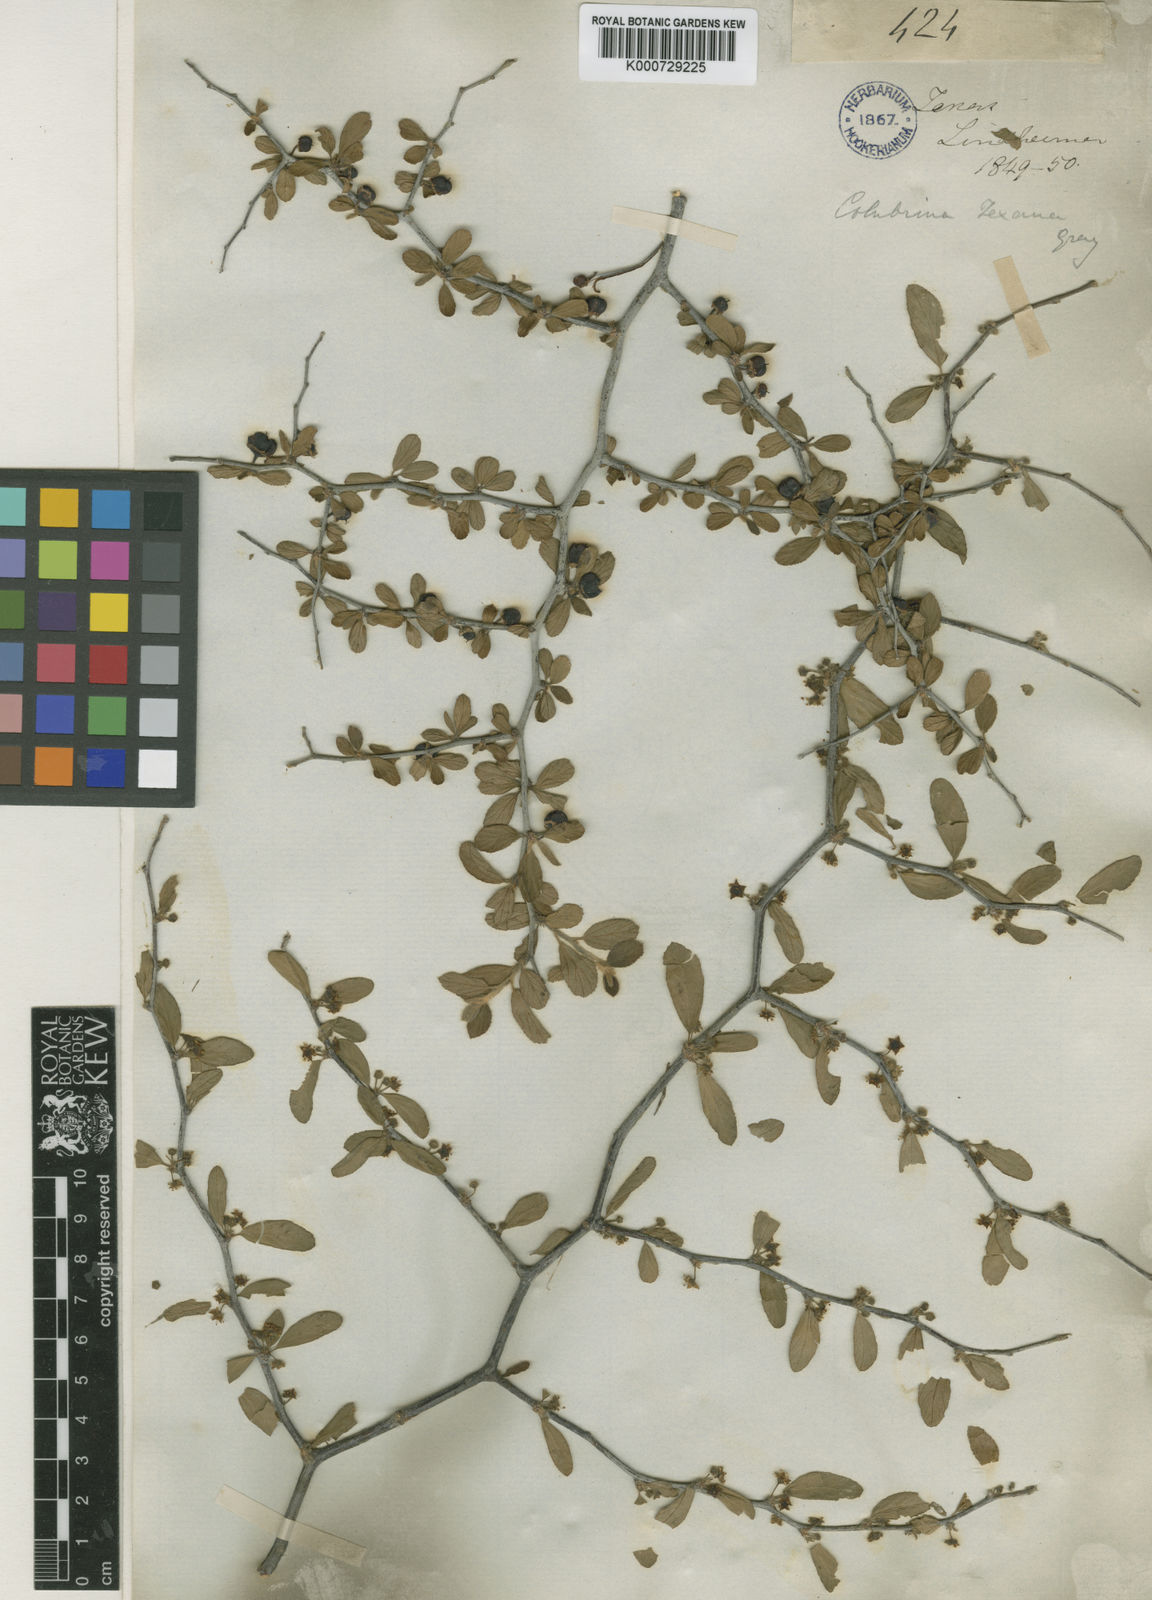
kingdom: Plantae
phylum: Tracheophyta
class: Magnoliopsida
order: Rosales
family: Rhamnaceae
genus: Colubrina
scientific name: Colubrina texensis
